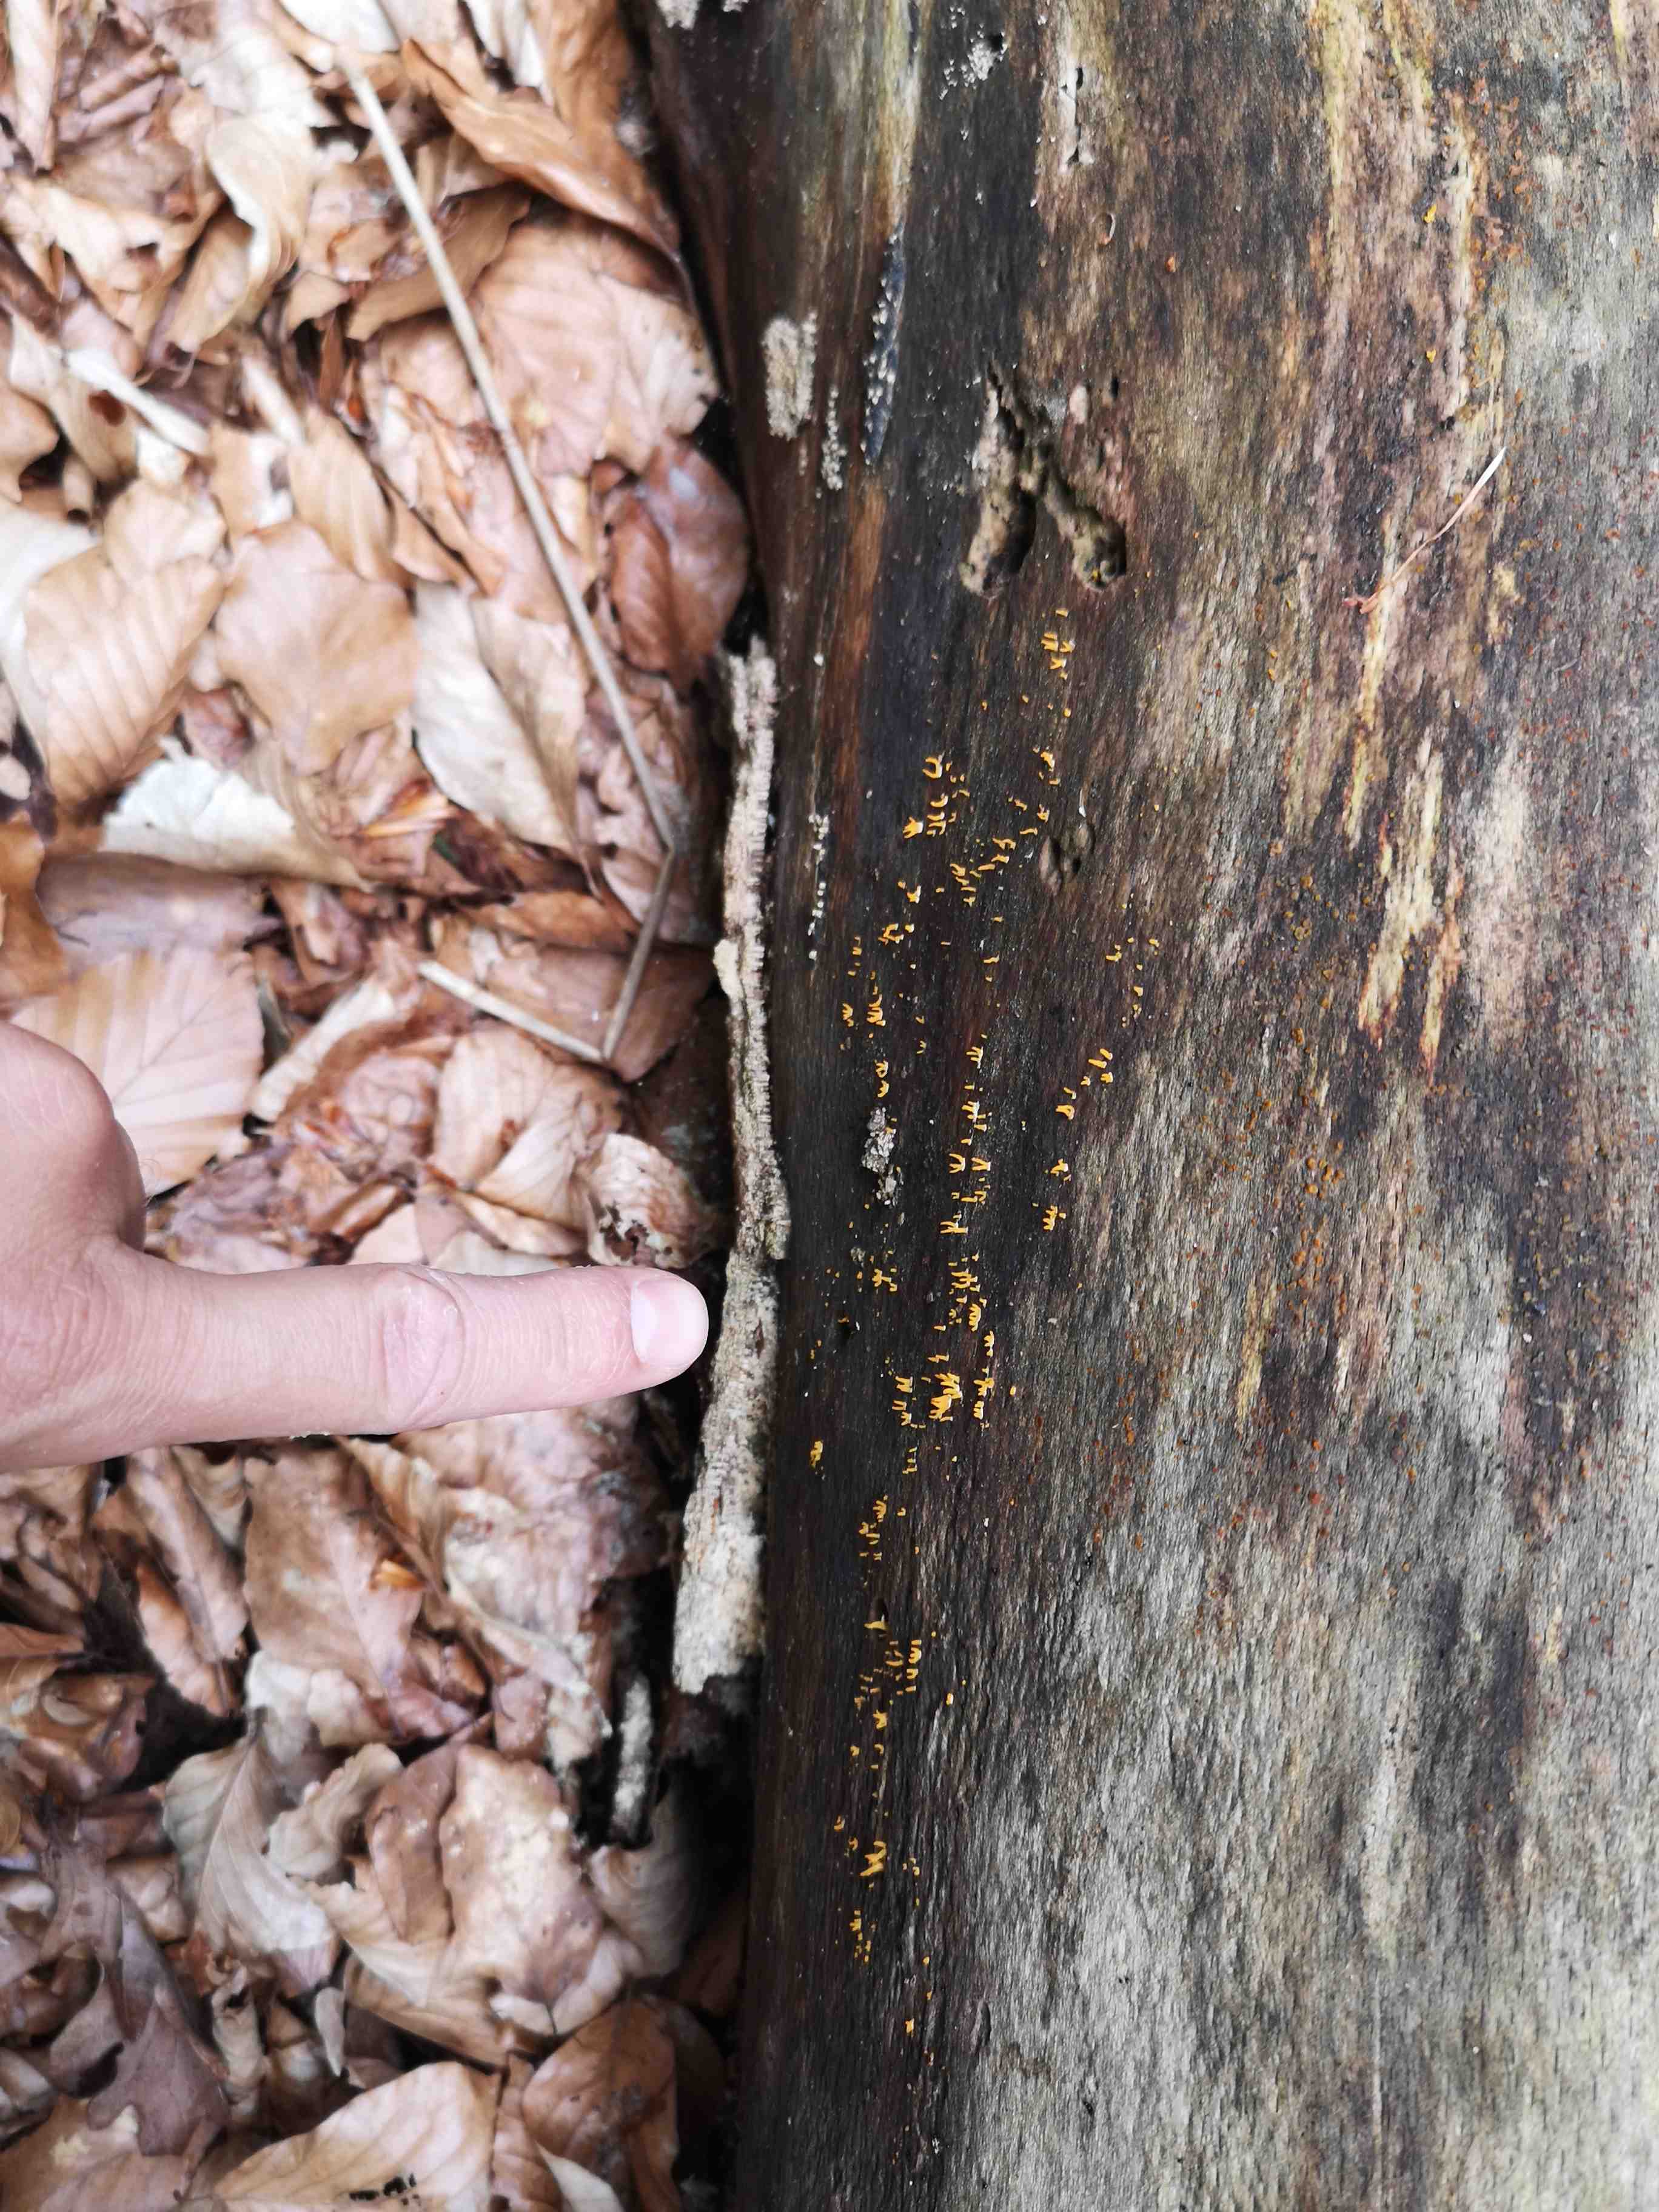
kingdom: Fungi
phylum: Basidiomycota
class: Dacrymycetes
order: Dacrymycetales
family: Dacrymycetaceae
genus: Calocera
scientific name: Calocera cornea
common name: liden guldgaffel
